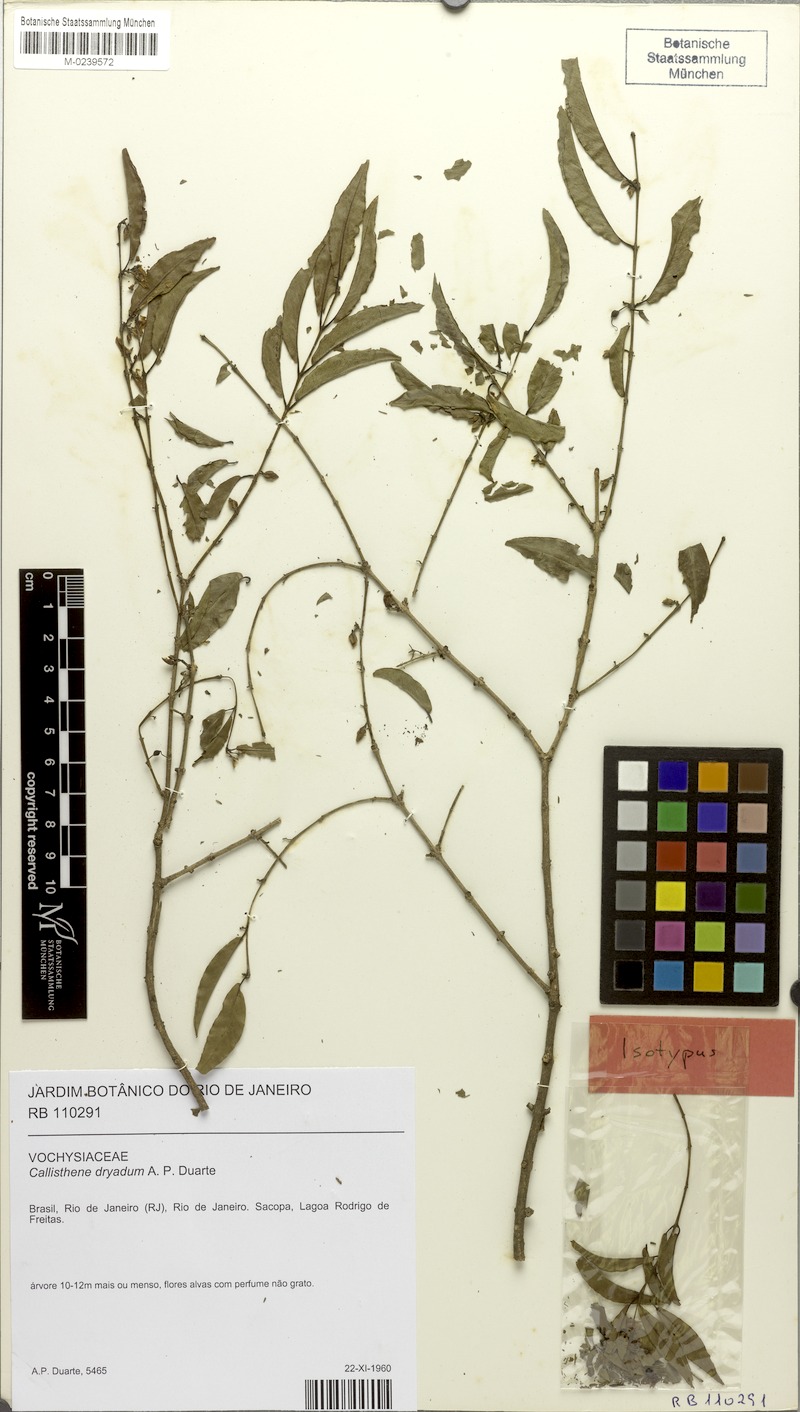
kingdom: Plantae
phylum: Tracheophyta
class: Magnoliopsida
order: Myrtales
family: Vochysiaceae
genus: Callisthene
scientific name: Callisthene dryadum
